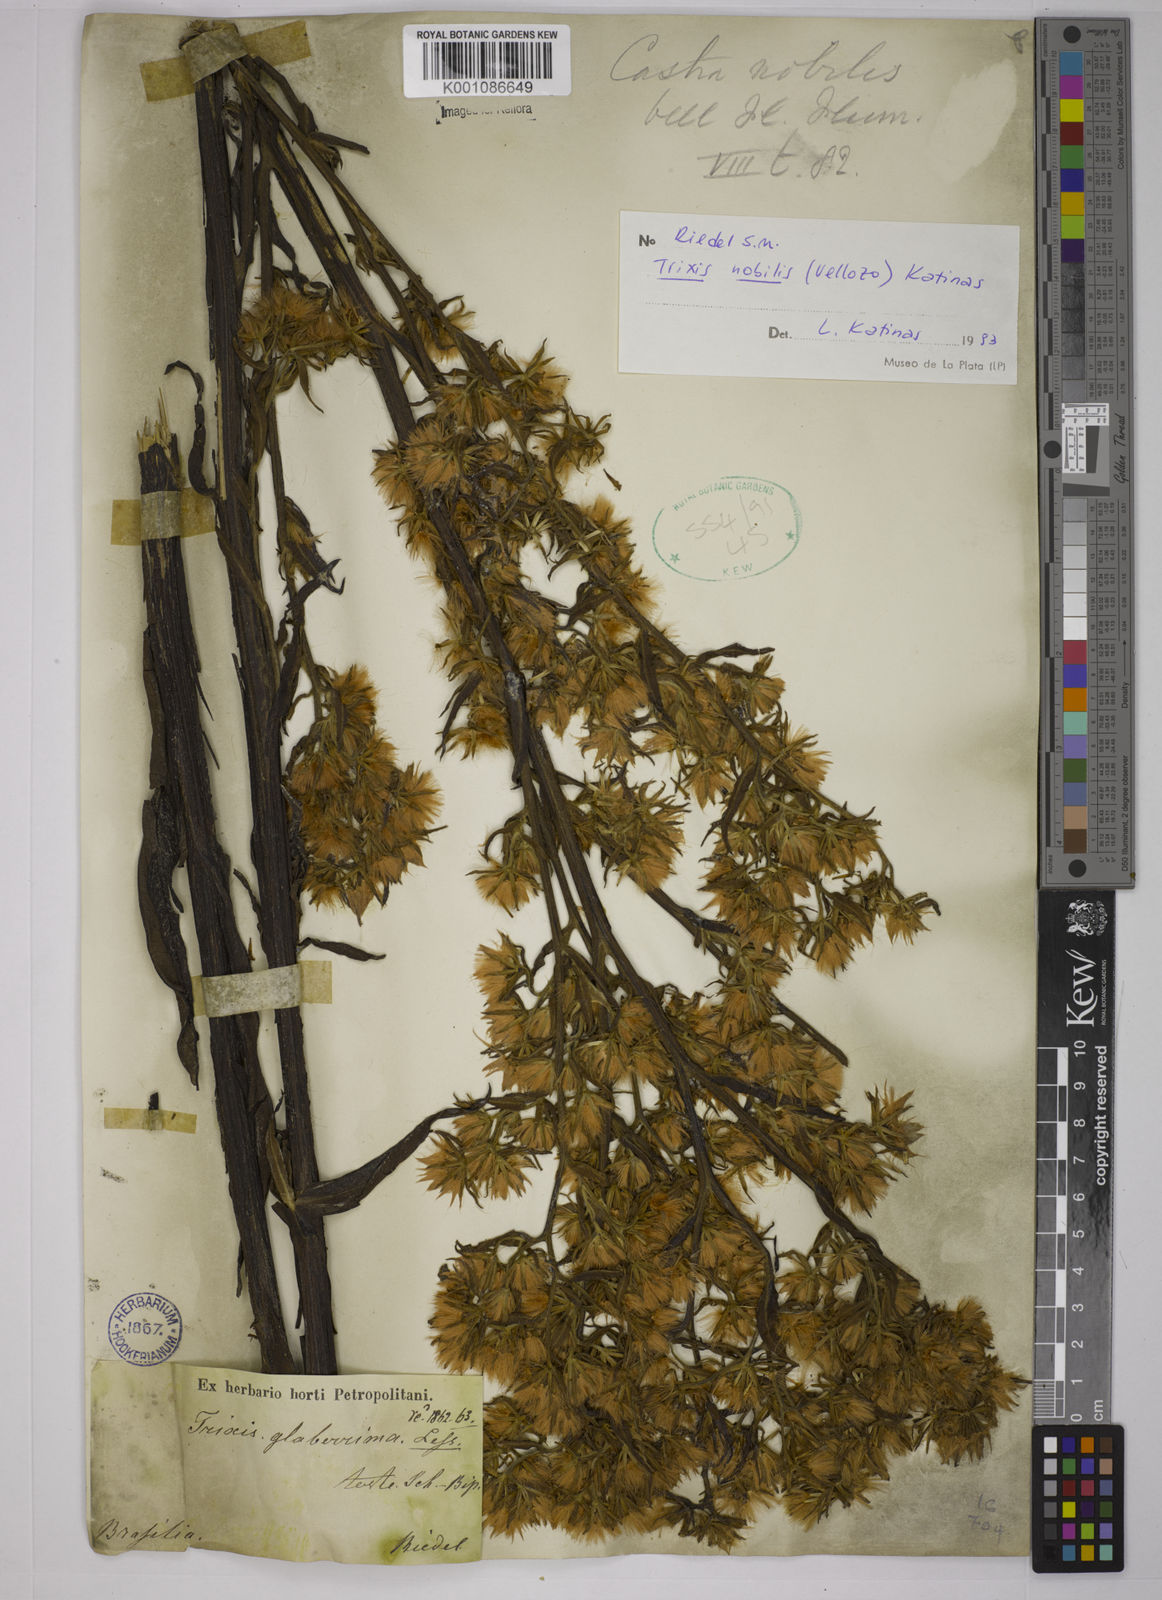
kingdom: Plantae
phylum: Tracheophyta
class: Magnoliopsida
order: Asterales
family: Asteraceae
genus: Trixis
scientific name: Trixis nobilis
